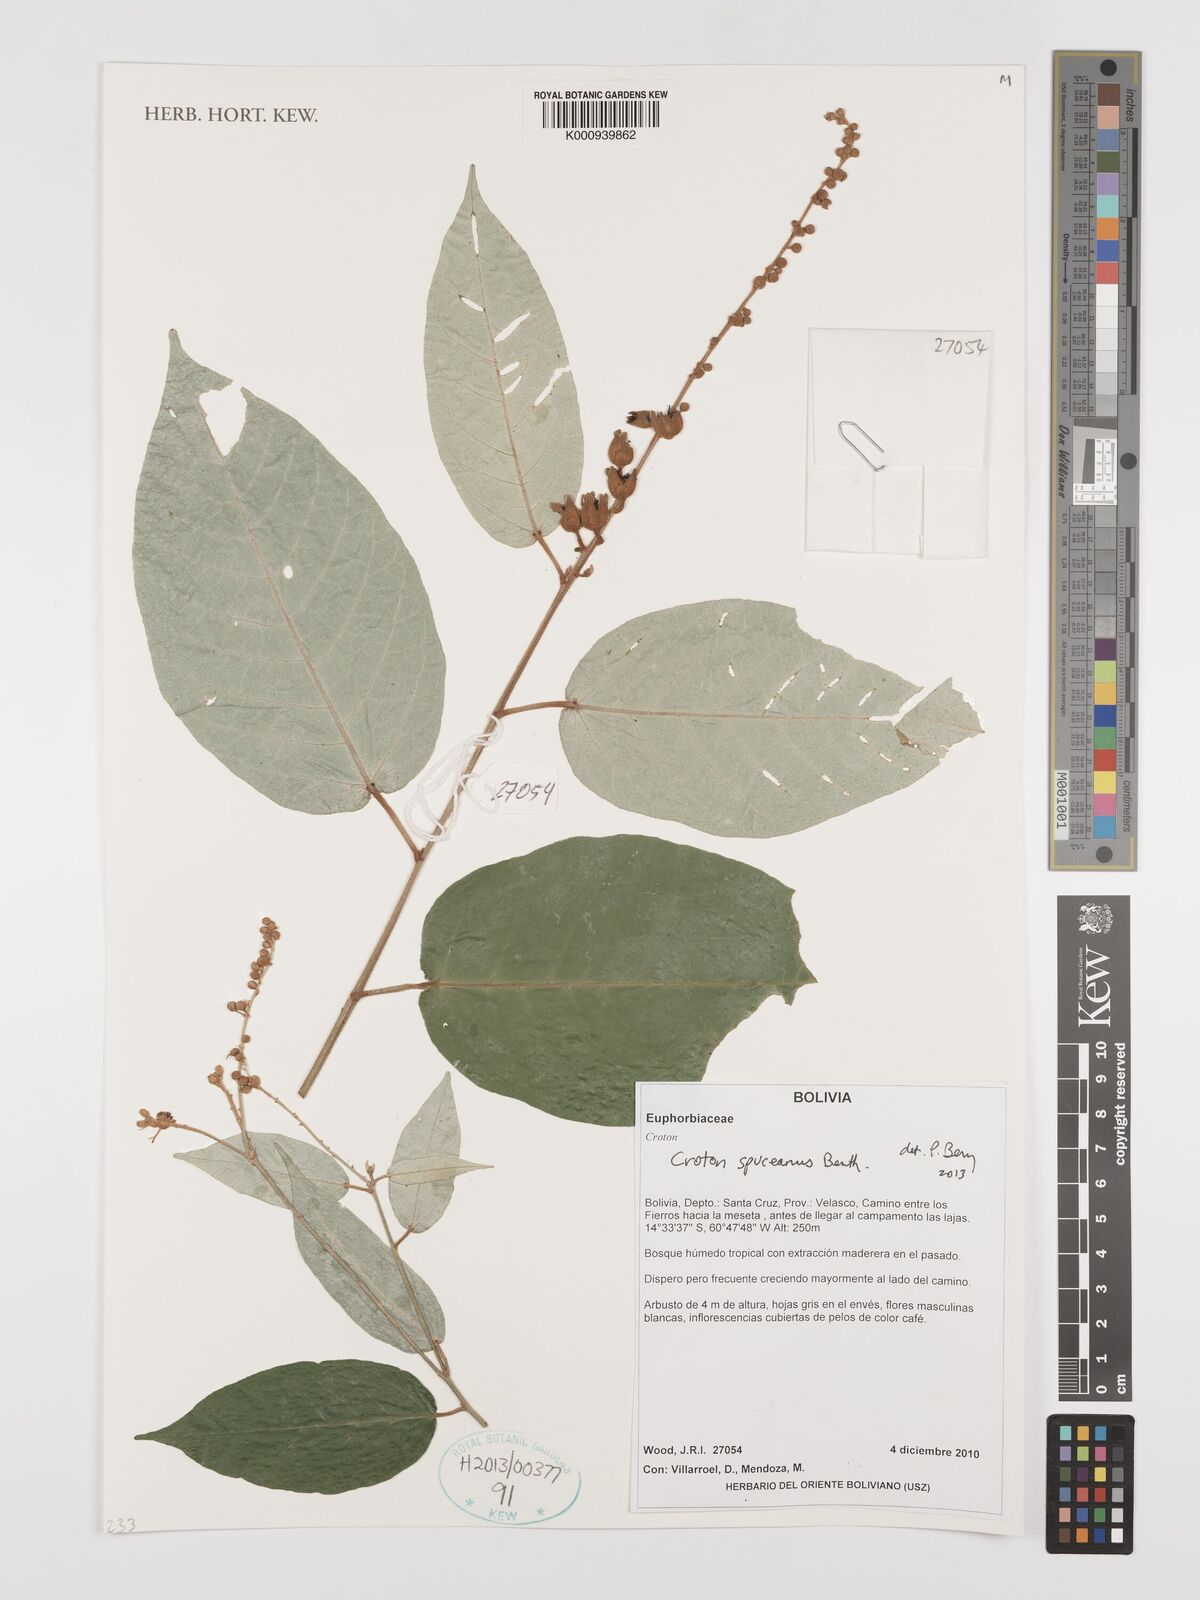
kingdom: Plantae
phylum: Tracheophyta
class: Magnoliopsida
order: Malpighiales
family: Euphorbiaceae
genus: Croton
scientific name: Croton spruceanus
